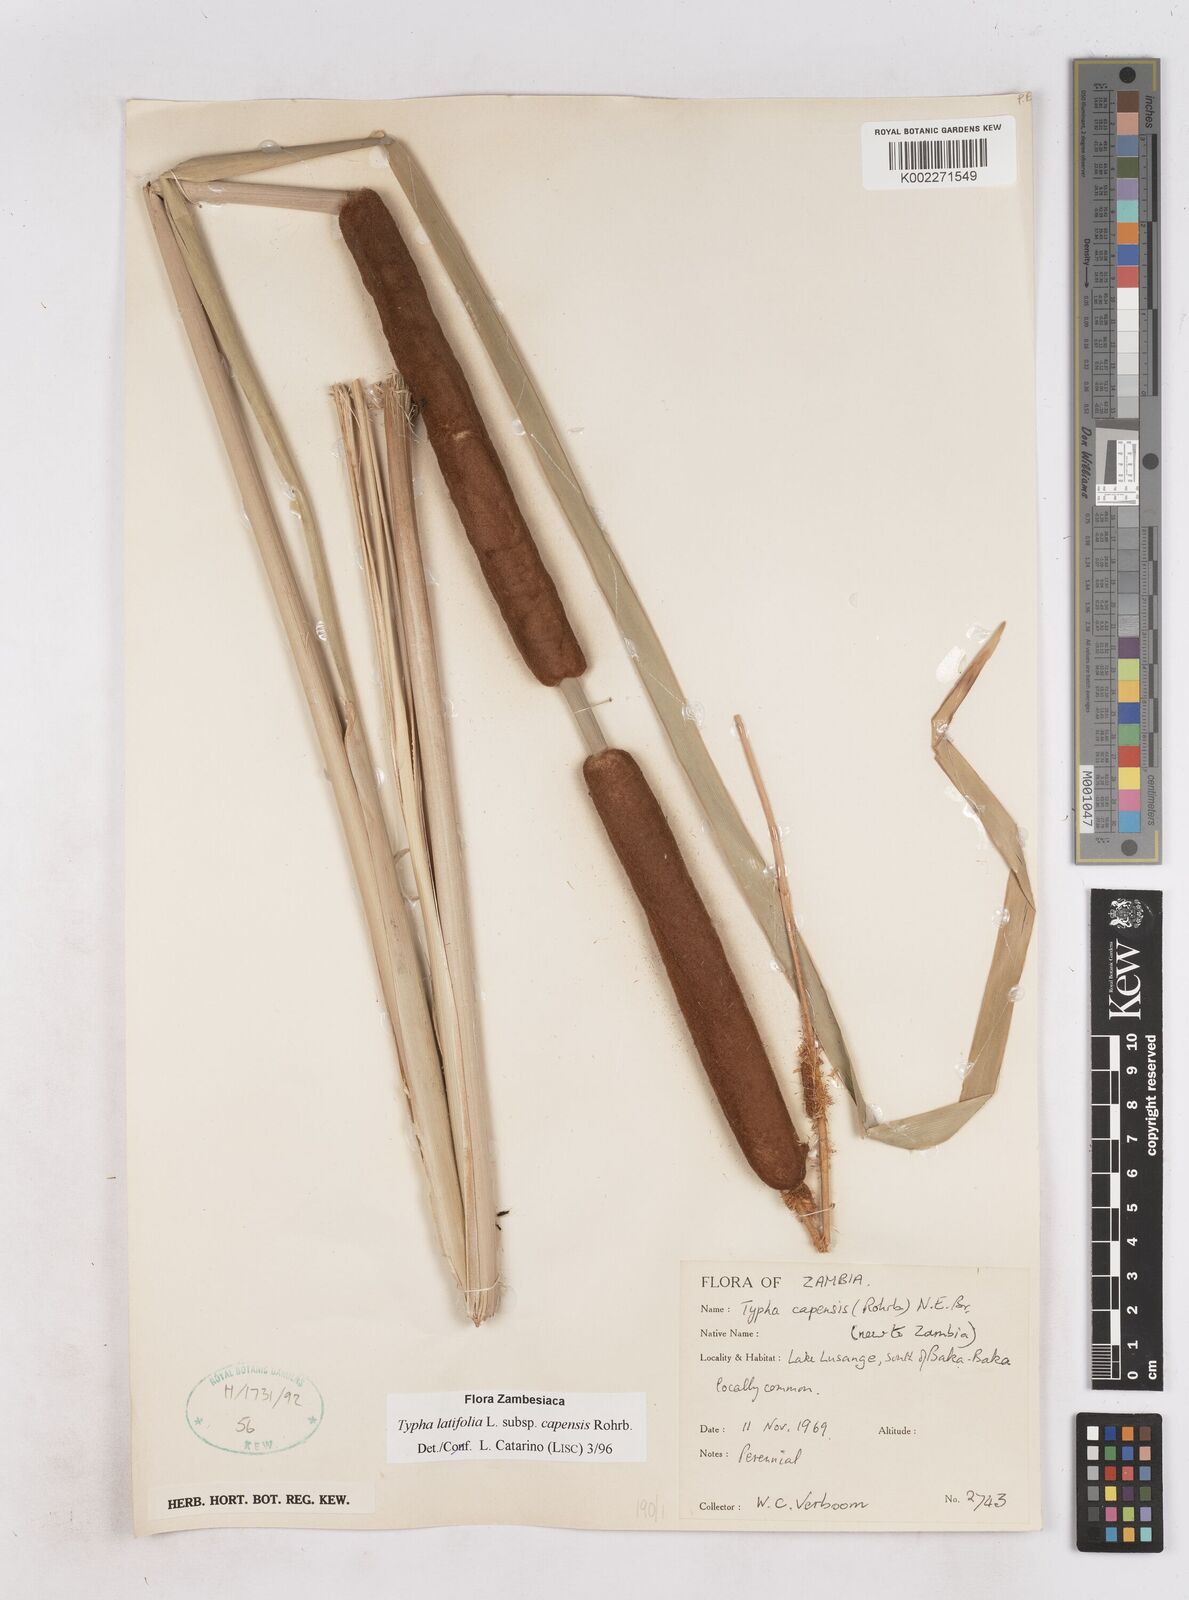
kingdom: Plantae
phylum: Tracheophyta
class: Liliopsida
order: Poales
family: Typhaceae
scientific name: Typhaceae
